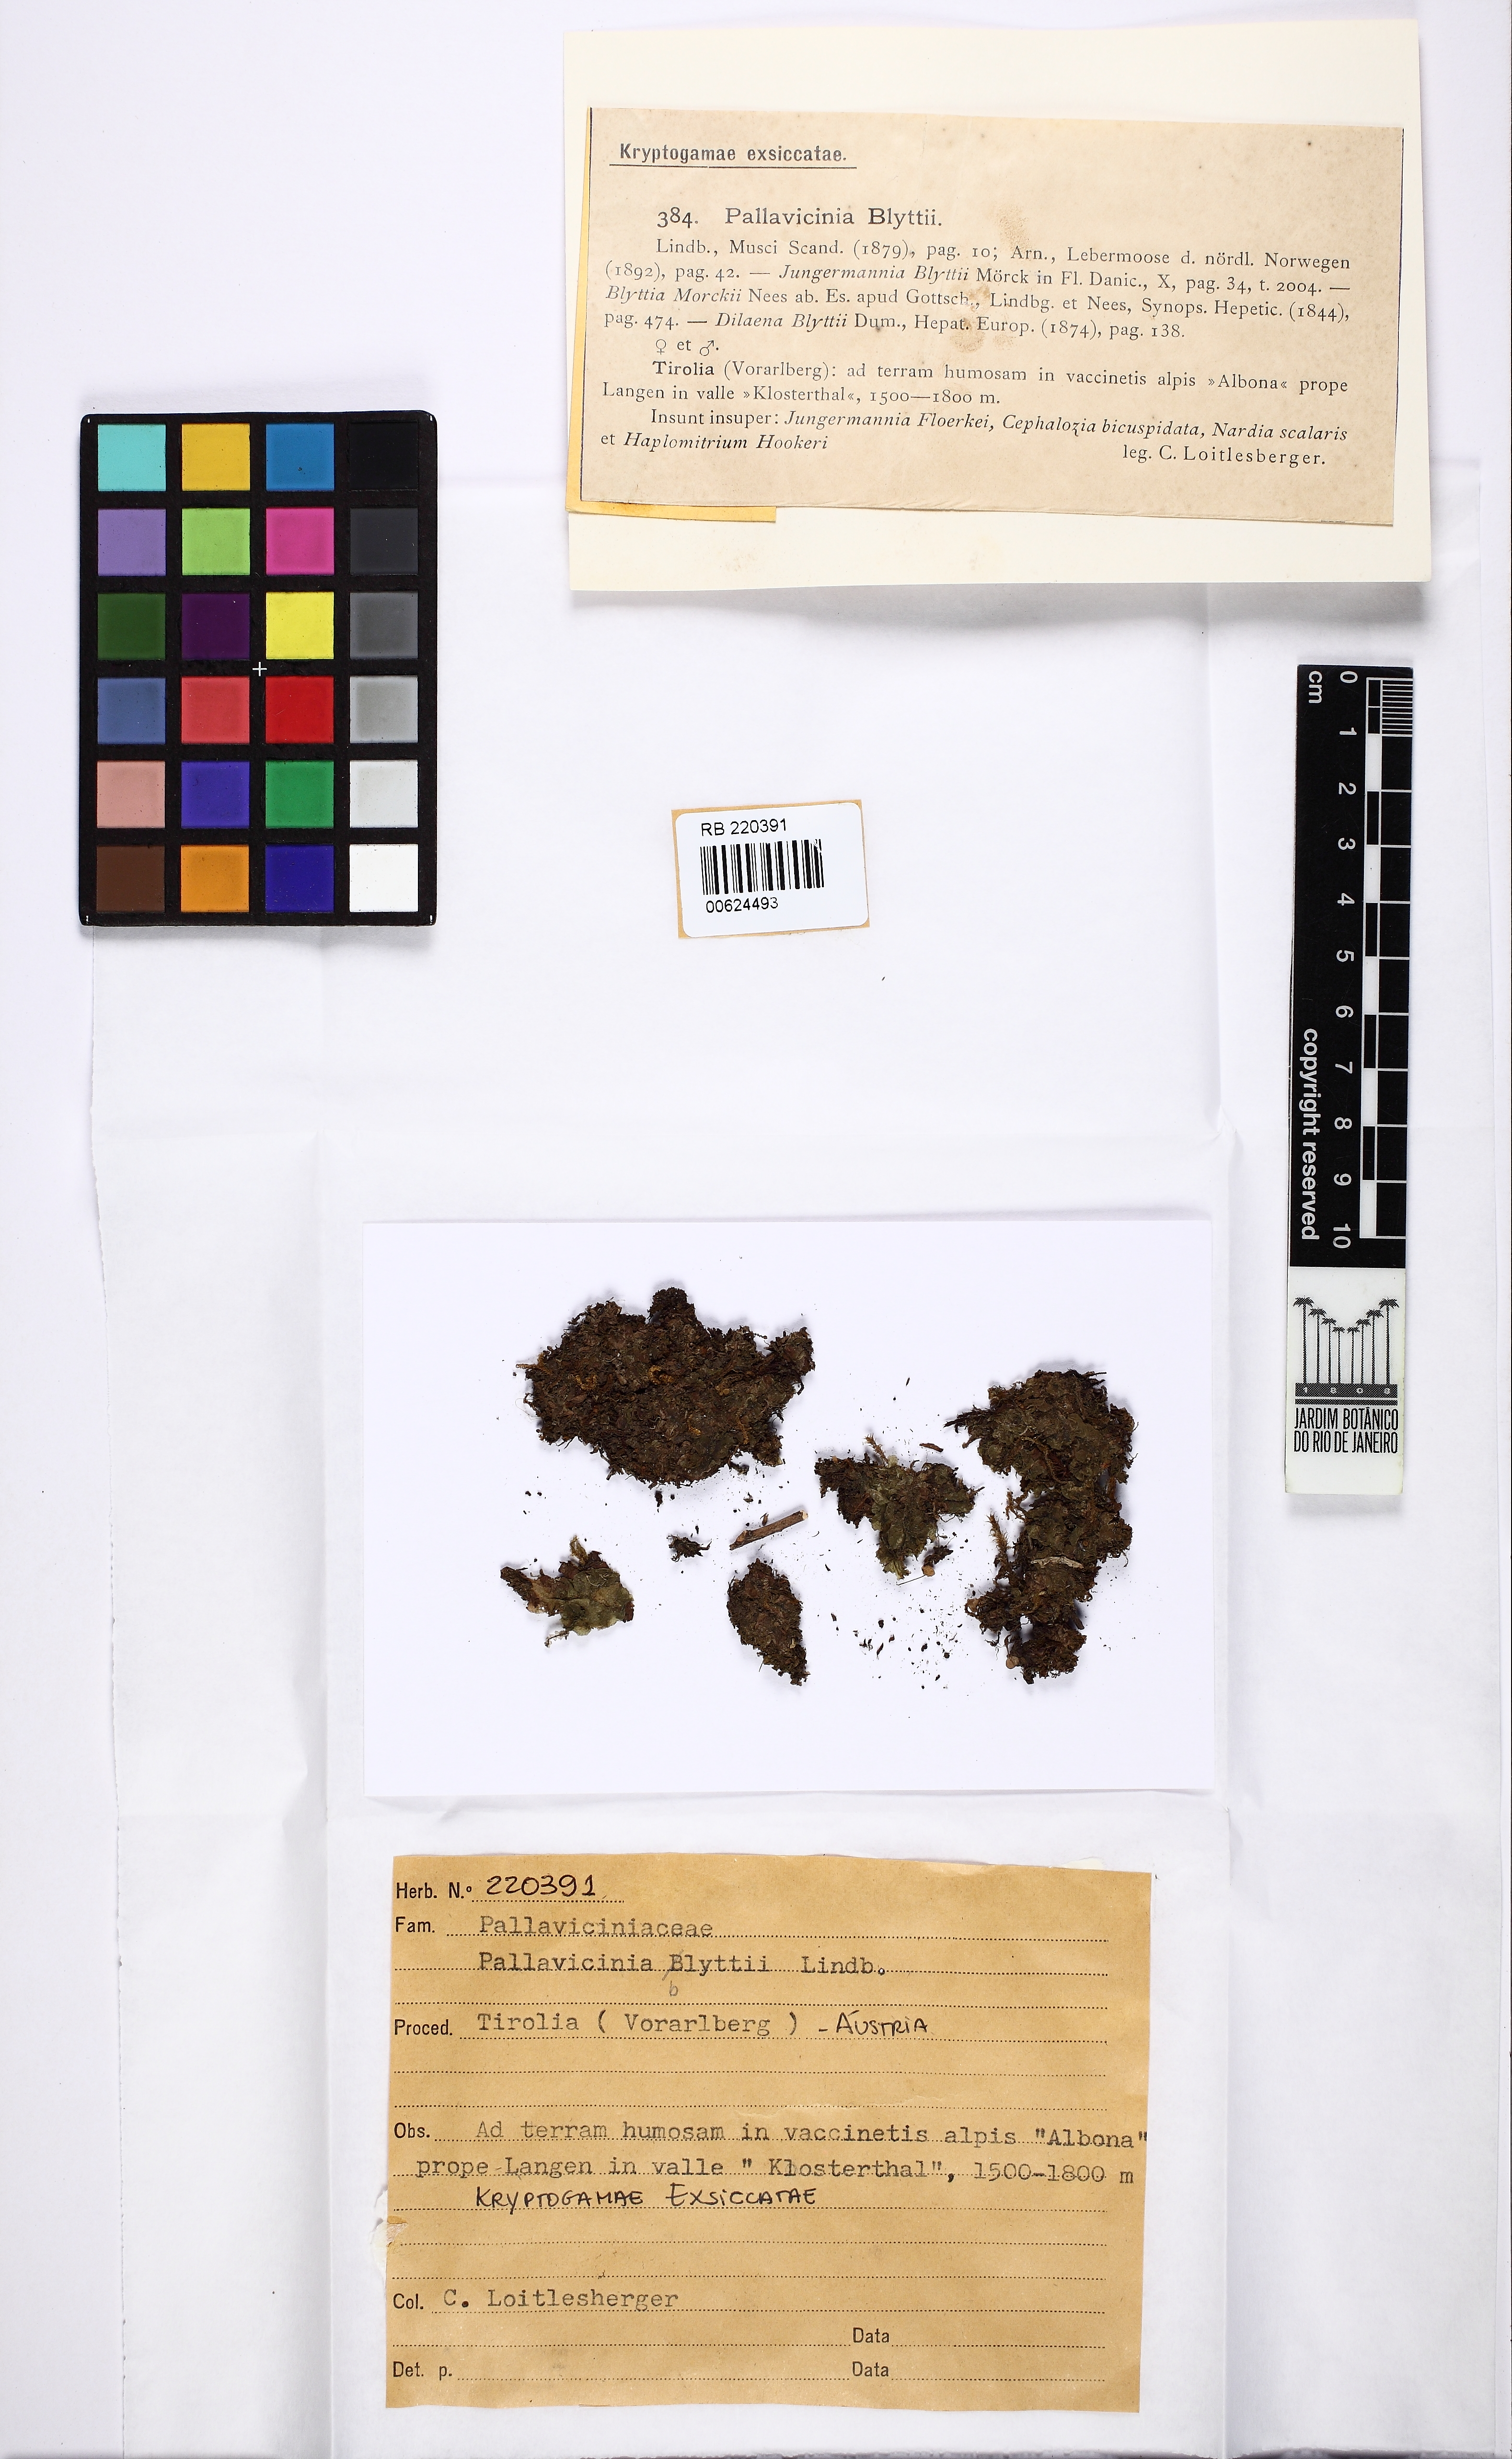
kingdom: Plantae
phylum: Marchantiophyta
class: Jungermanniopsida
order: Pallaviciniales
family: Pseudomoerckiaceae
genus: Pseudomoerckia
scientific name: Pseudomoerckia blyttii
